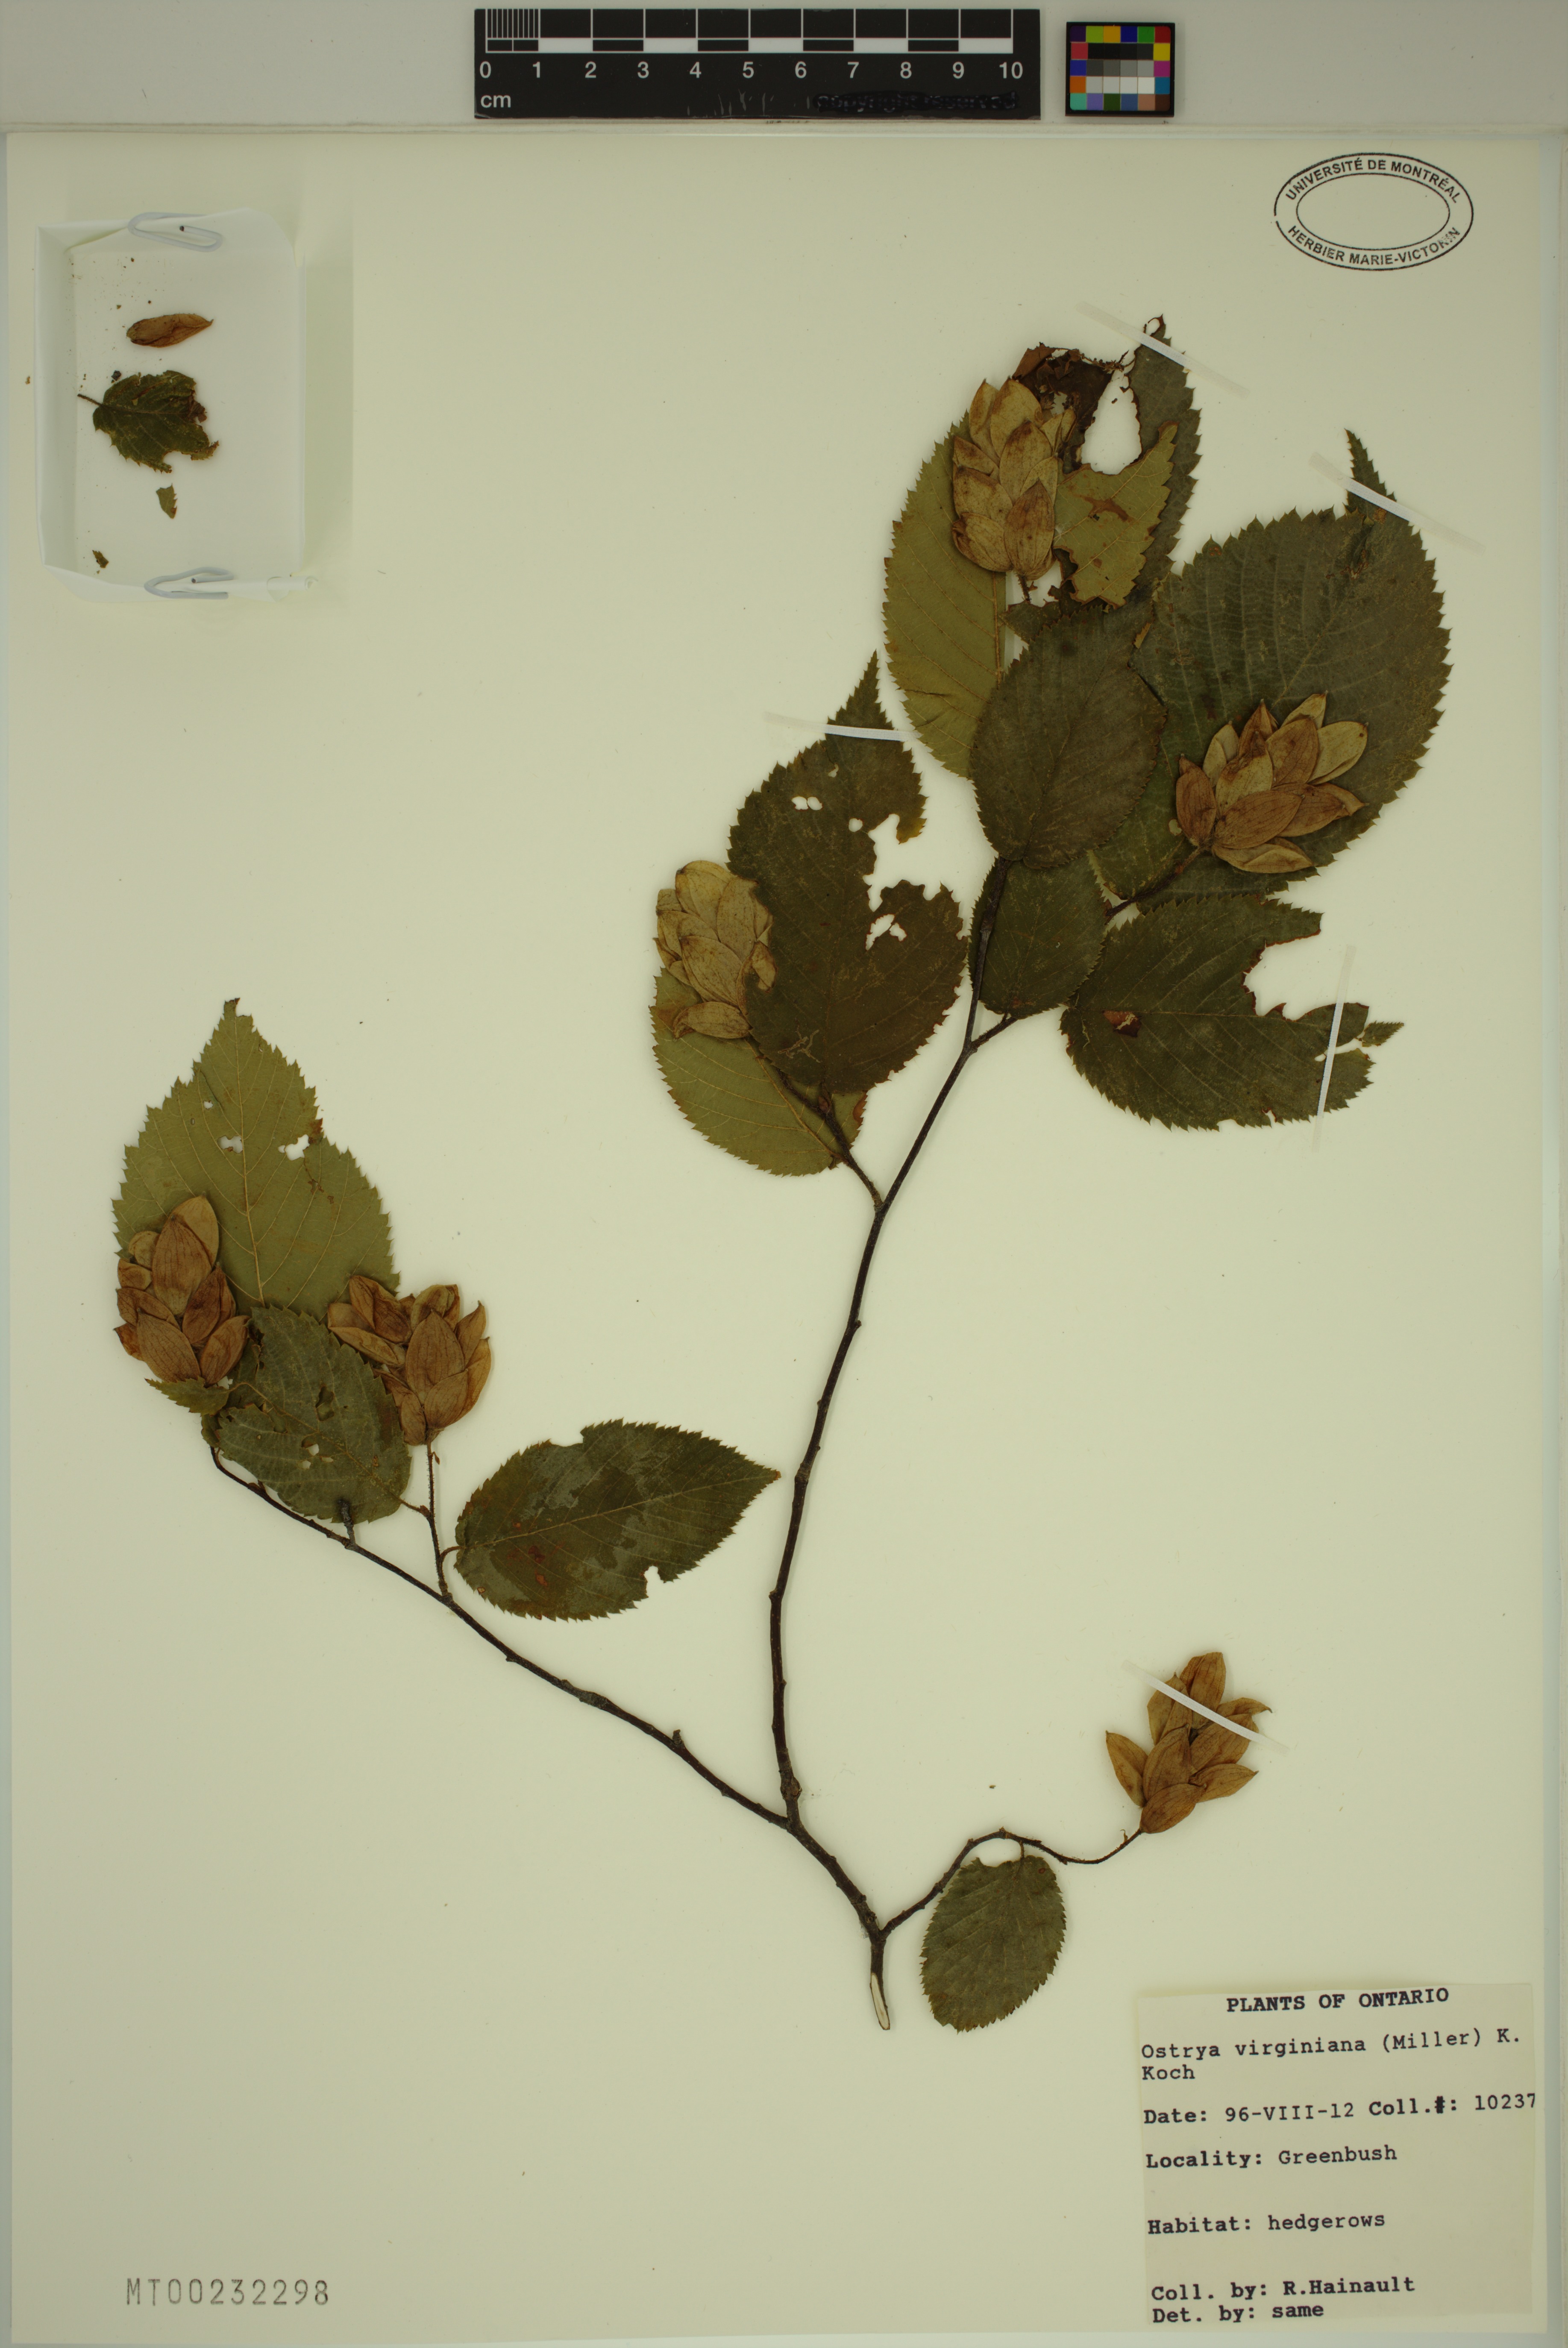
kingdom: Plantae
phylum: Tracheophyta
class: Magnoliopsida
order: Fagales
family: Betulaceae
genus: Ostrya
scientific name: Ostrya virginiana
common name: Ironwood
